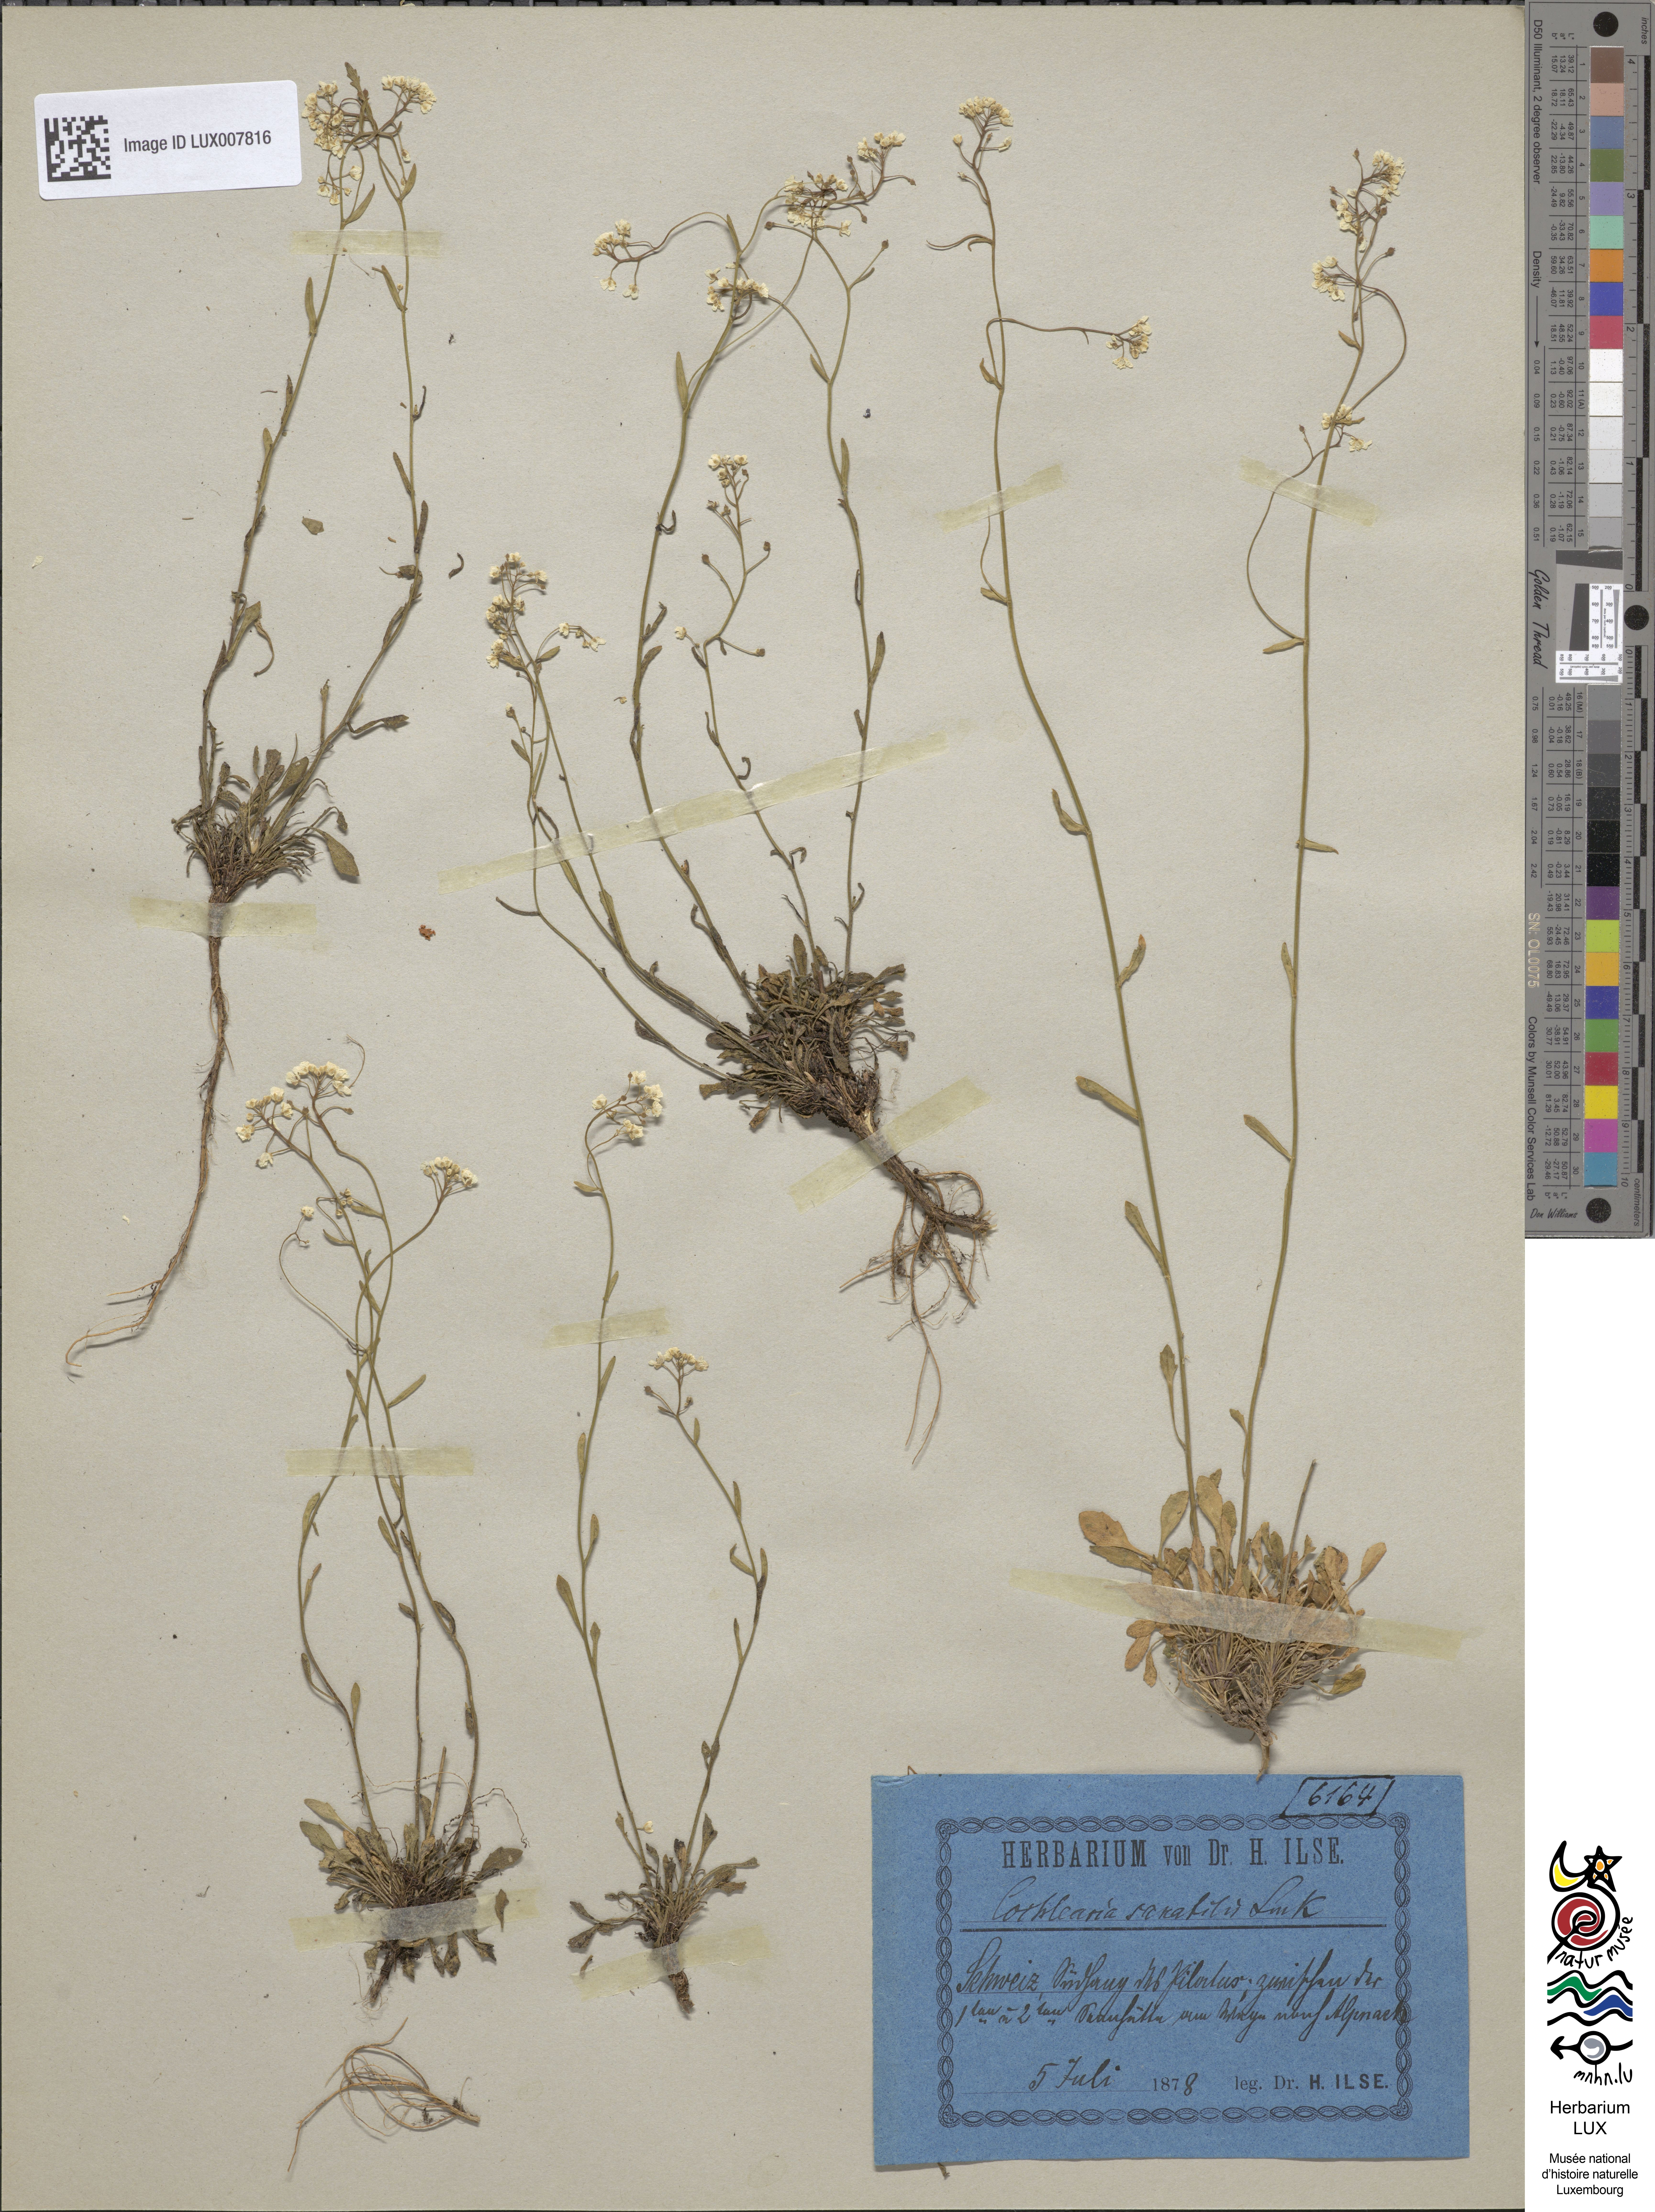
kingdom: Plantae
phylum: Tracheophyta
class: Magnoliopsida
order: Brassicales
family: Brassicaceae
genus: Kernera
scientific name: Kernera saxatilis
